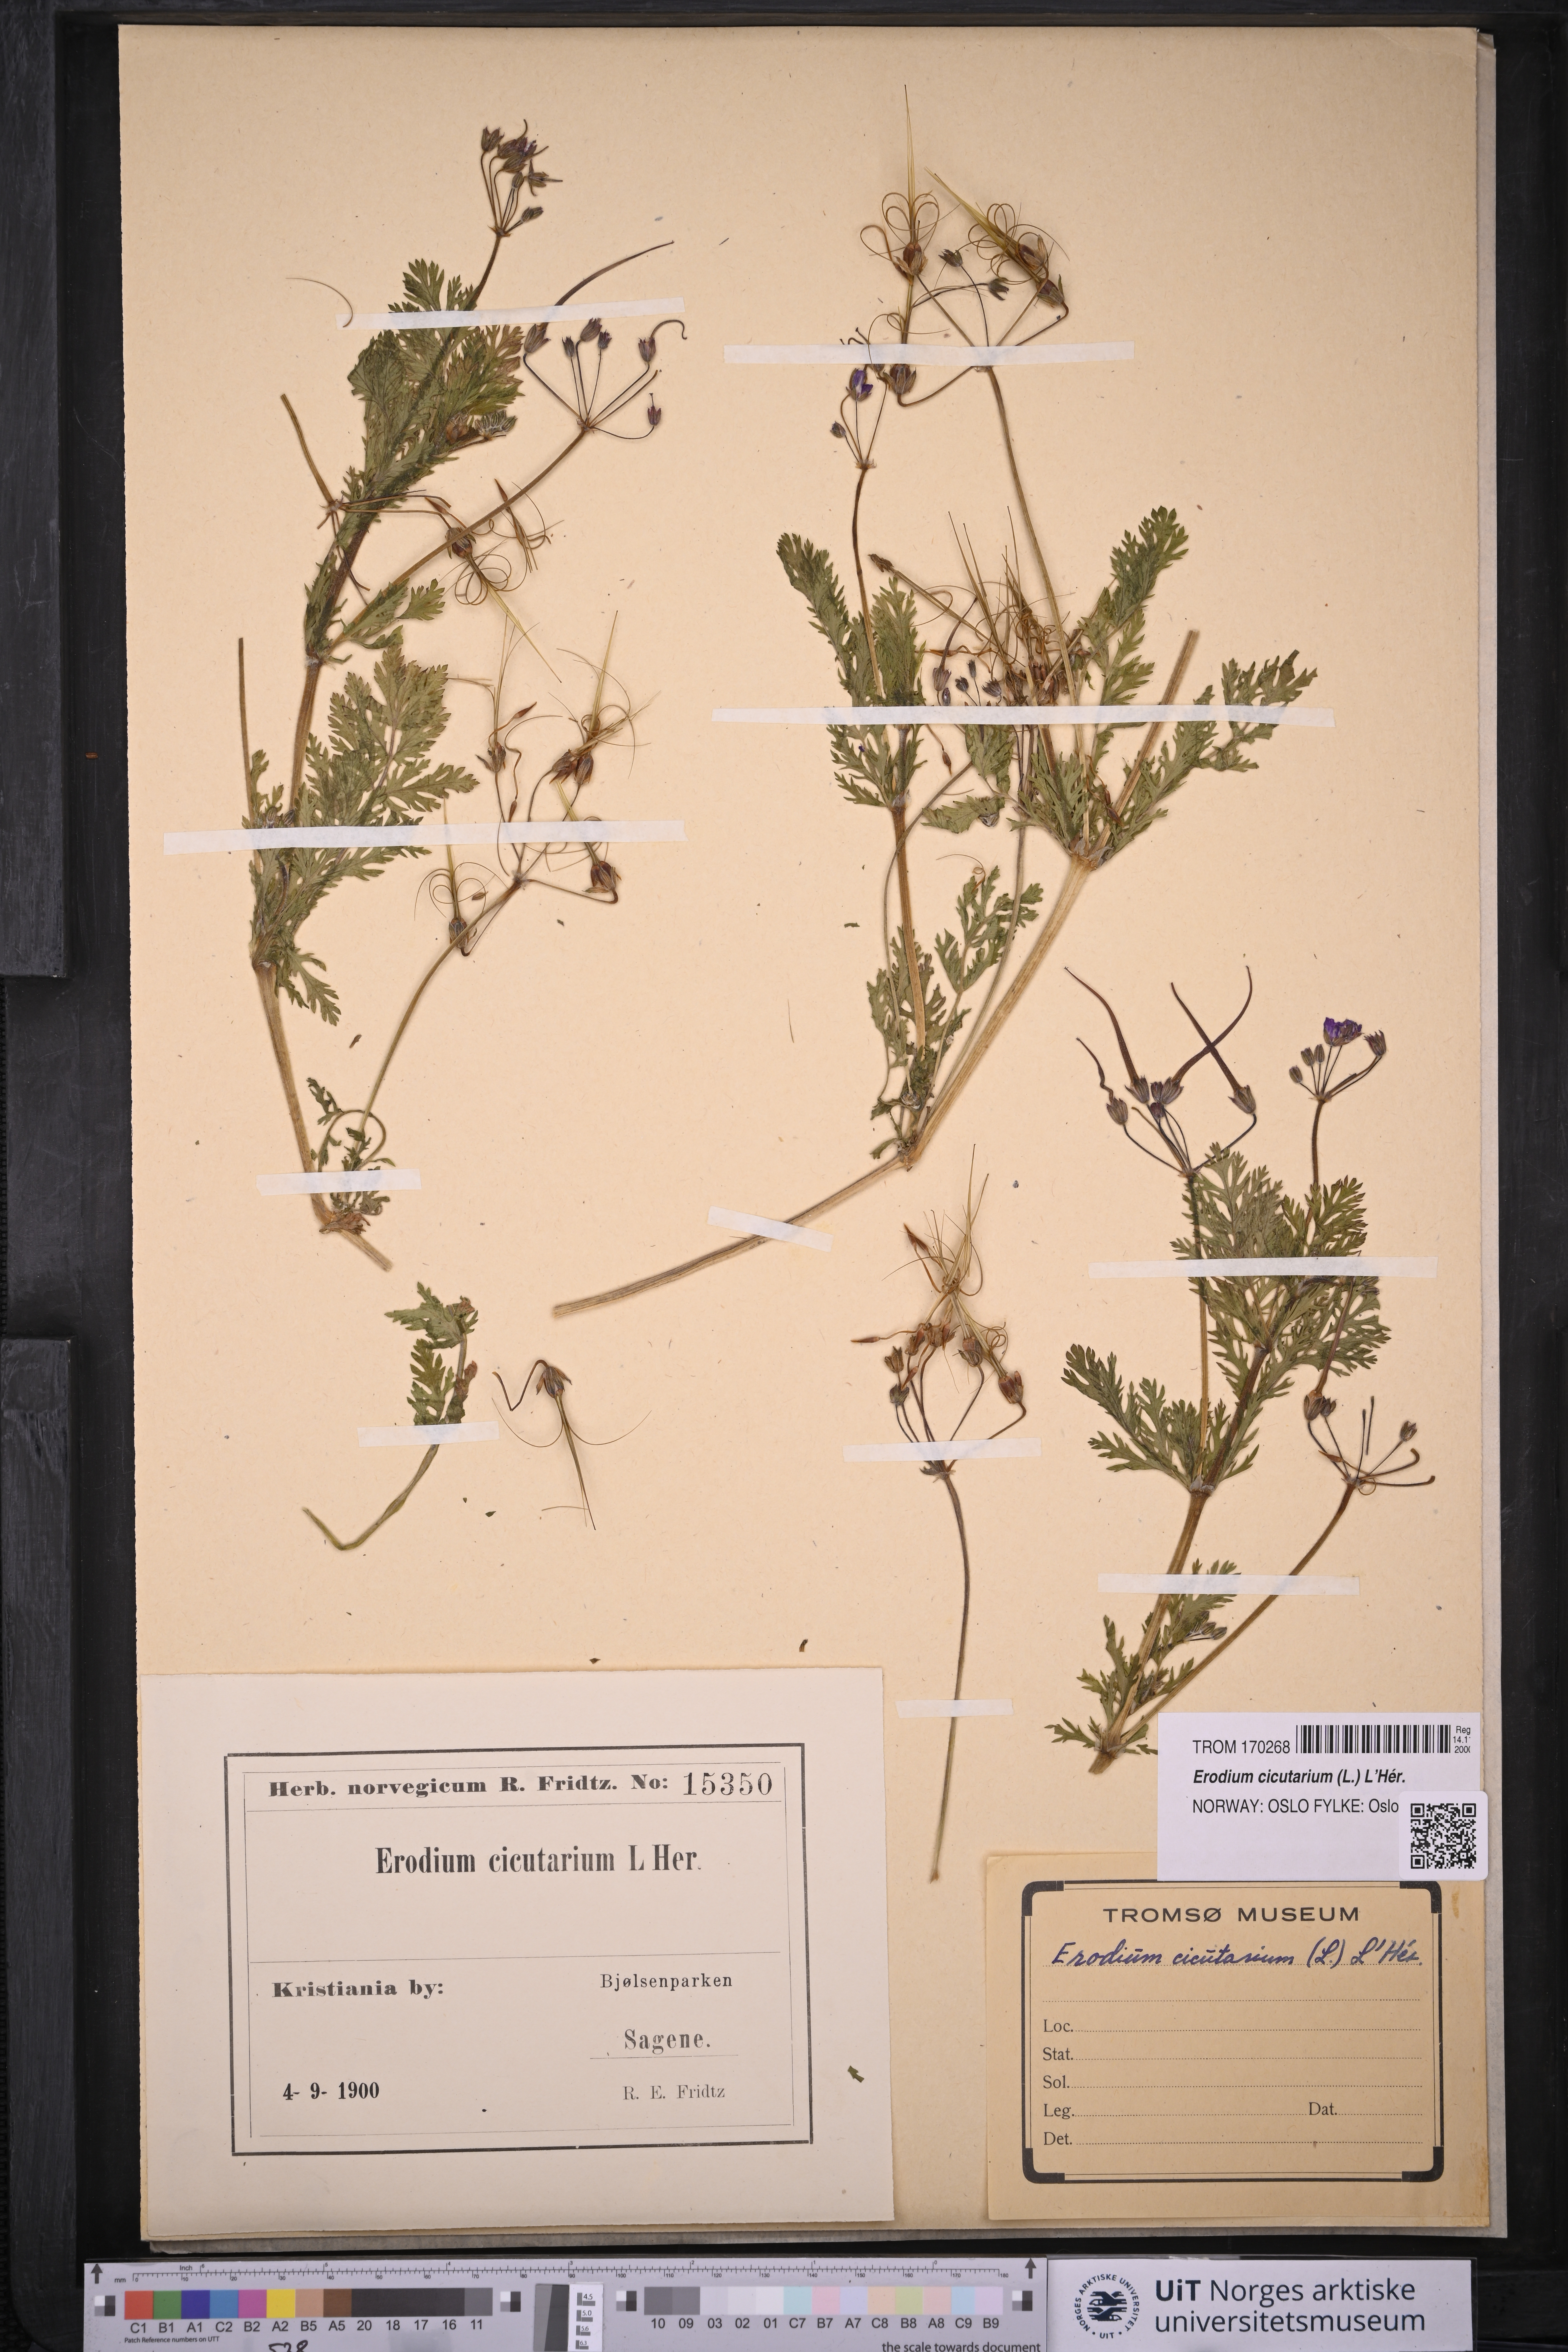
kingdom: Plantae
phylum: Tracheophyta
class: Magnoliopsida
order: Geraniales
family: Geraniaceae
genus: Erodium
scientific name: Erodium cicutarium
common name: Common stork's-bill
